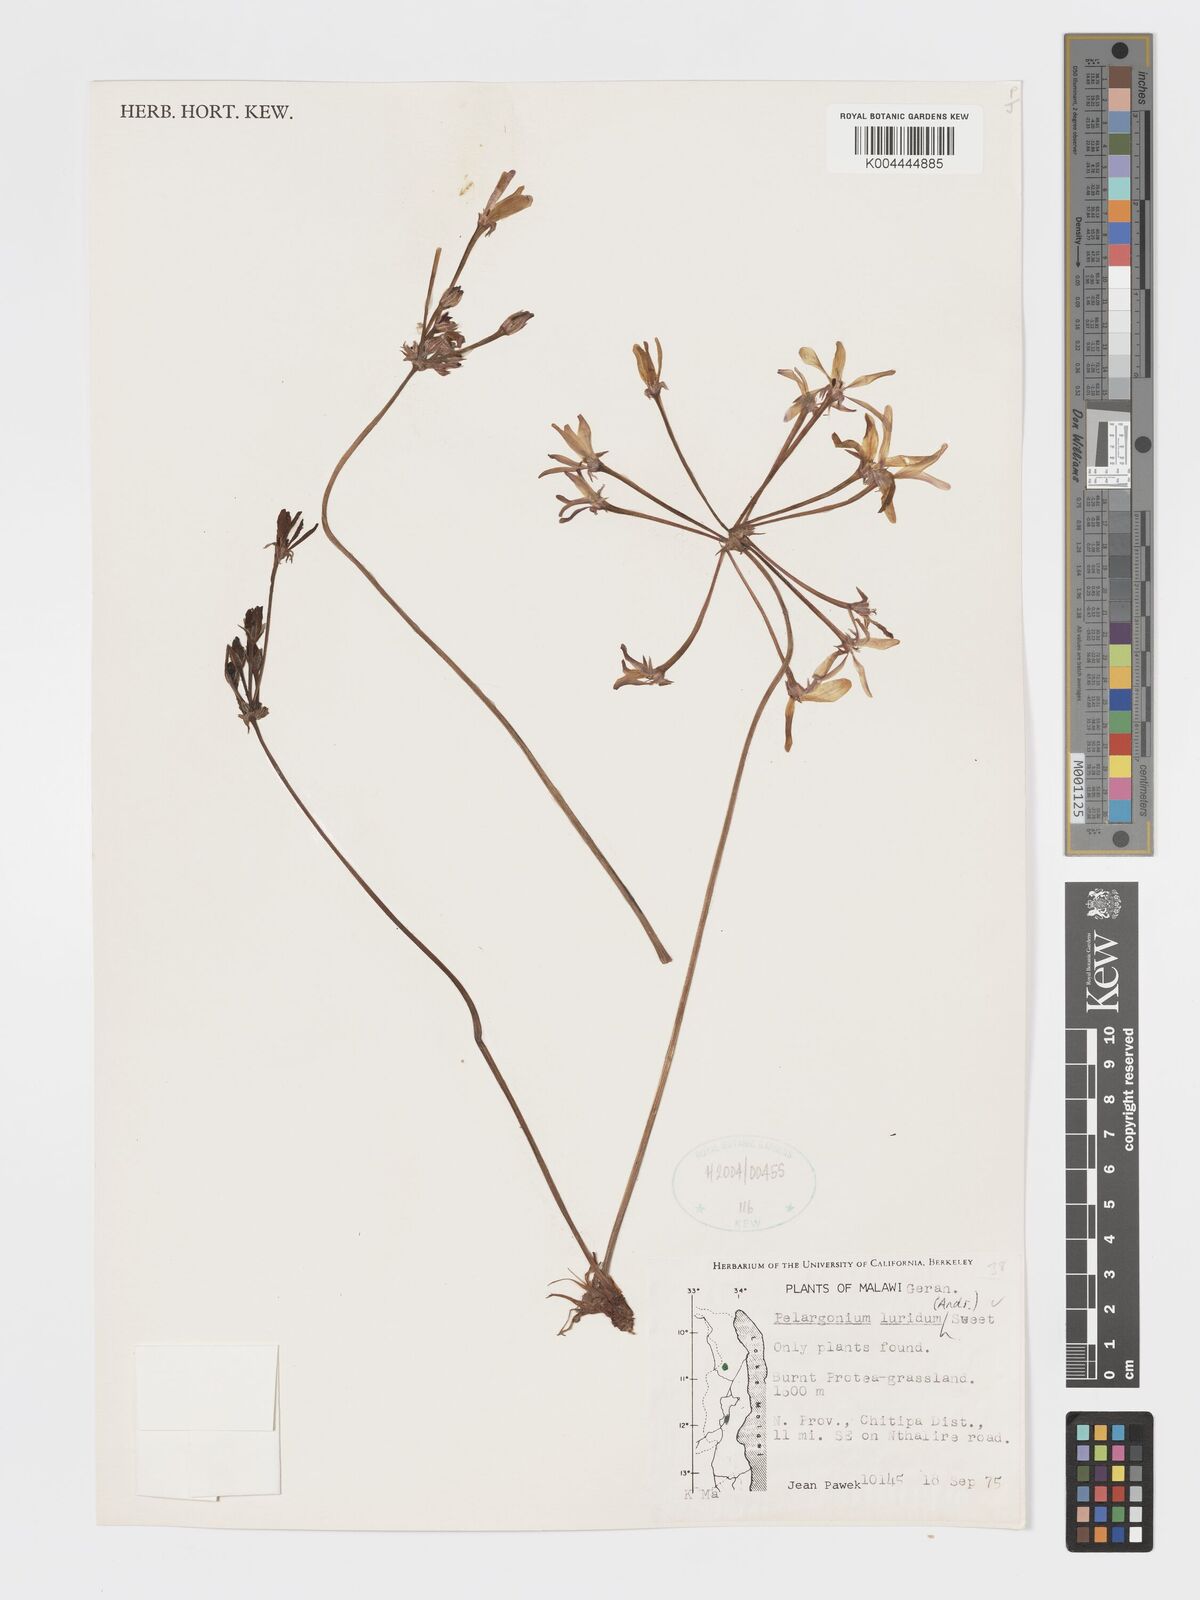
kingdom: Plantae
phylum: Tracheophyta
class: Magnoliopsida
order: Geraniales
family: Geraniaceae
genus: Pelargonium
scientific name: Pelargonium luridum
